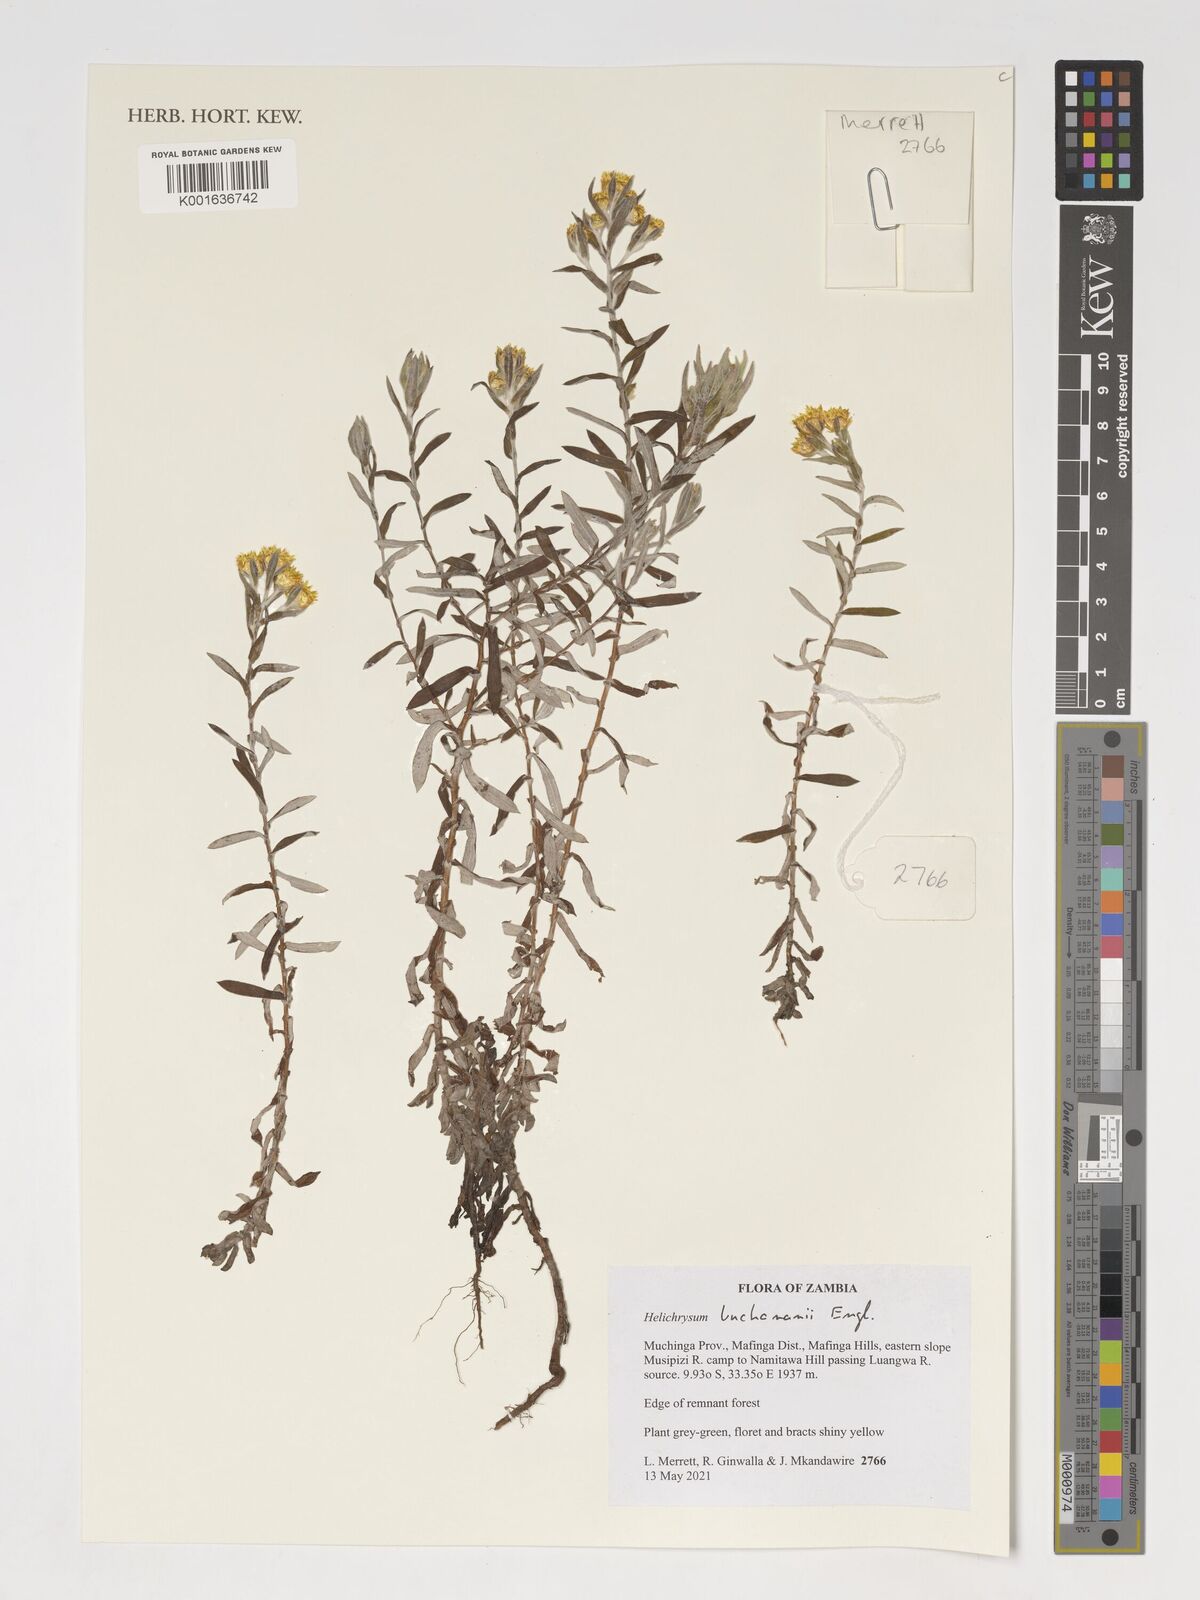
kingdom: Plantae
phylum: Tracheophyta
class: Magnoliopsida
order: Asterales
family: Asteraceae
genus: Helichrysum
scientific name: Helichrysum buchananii
